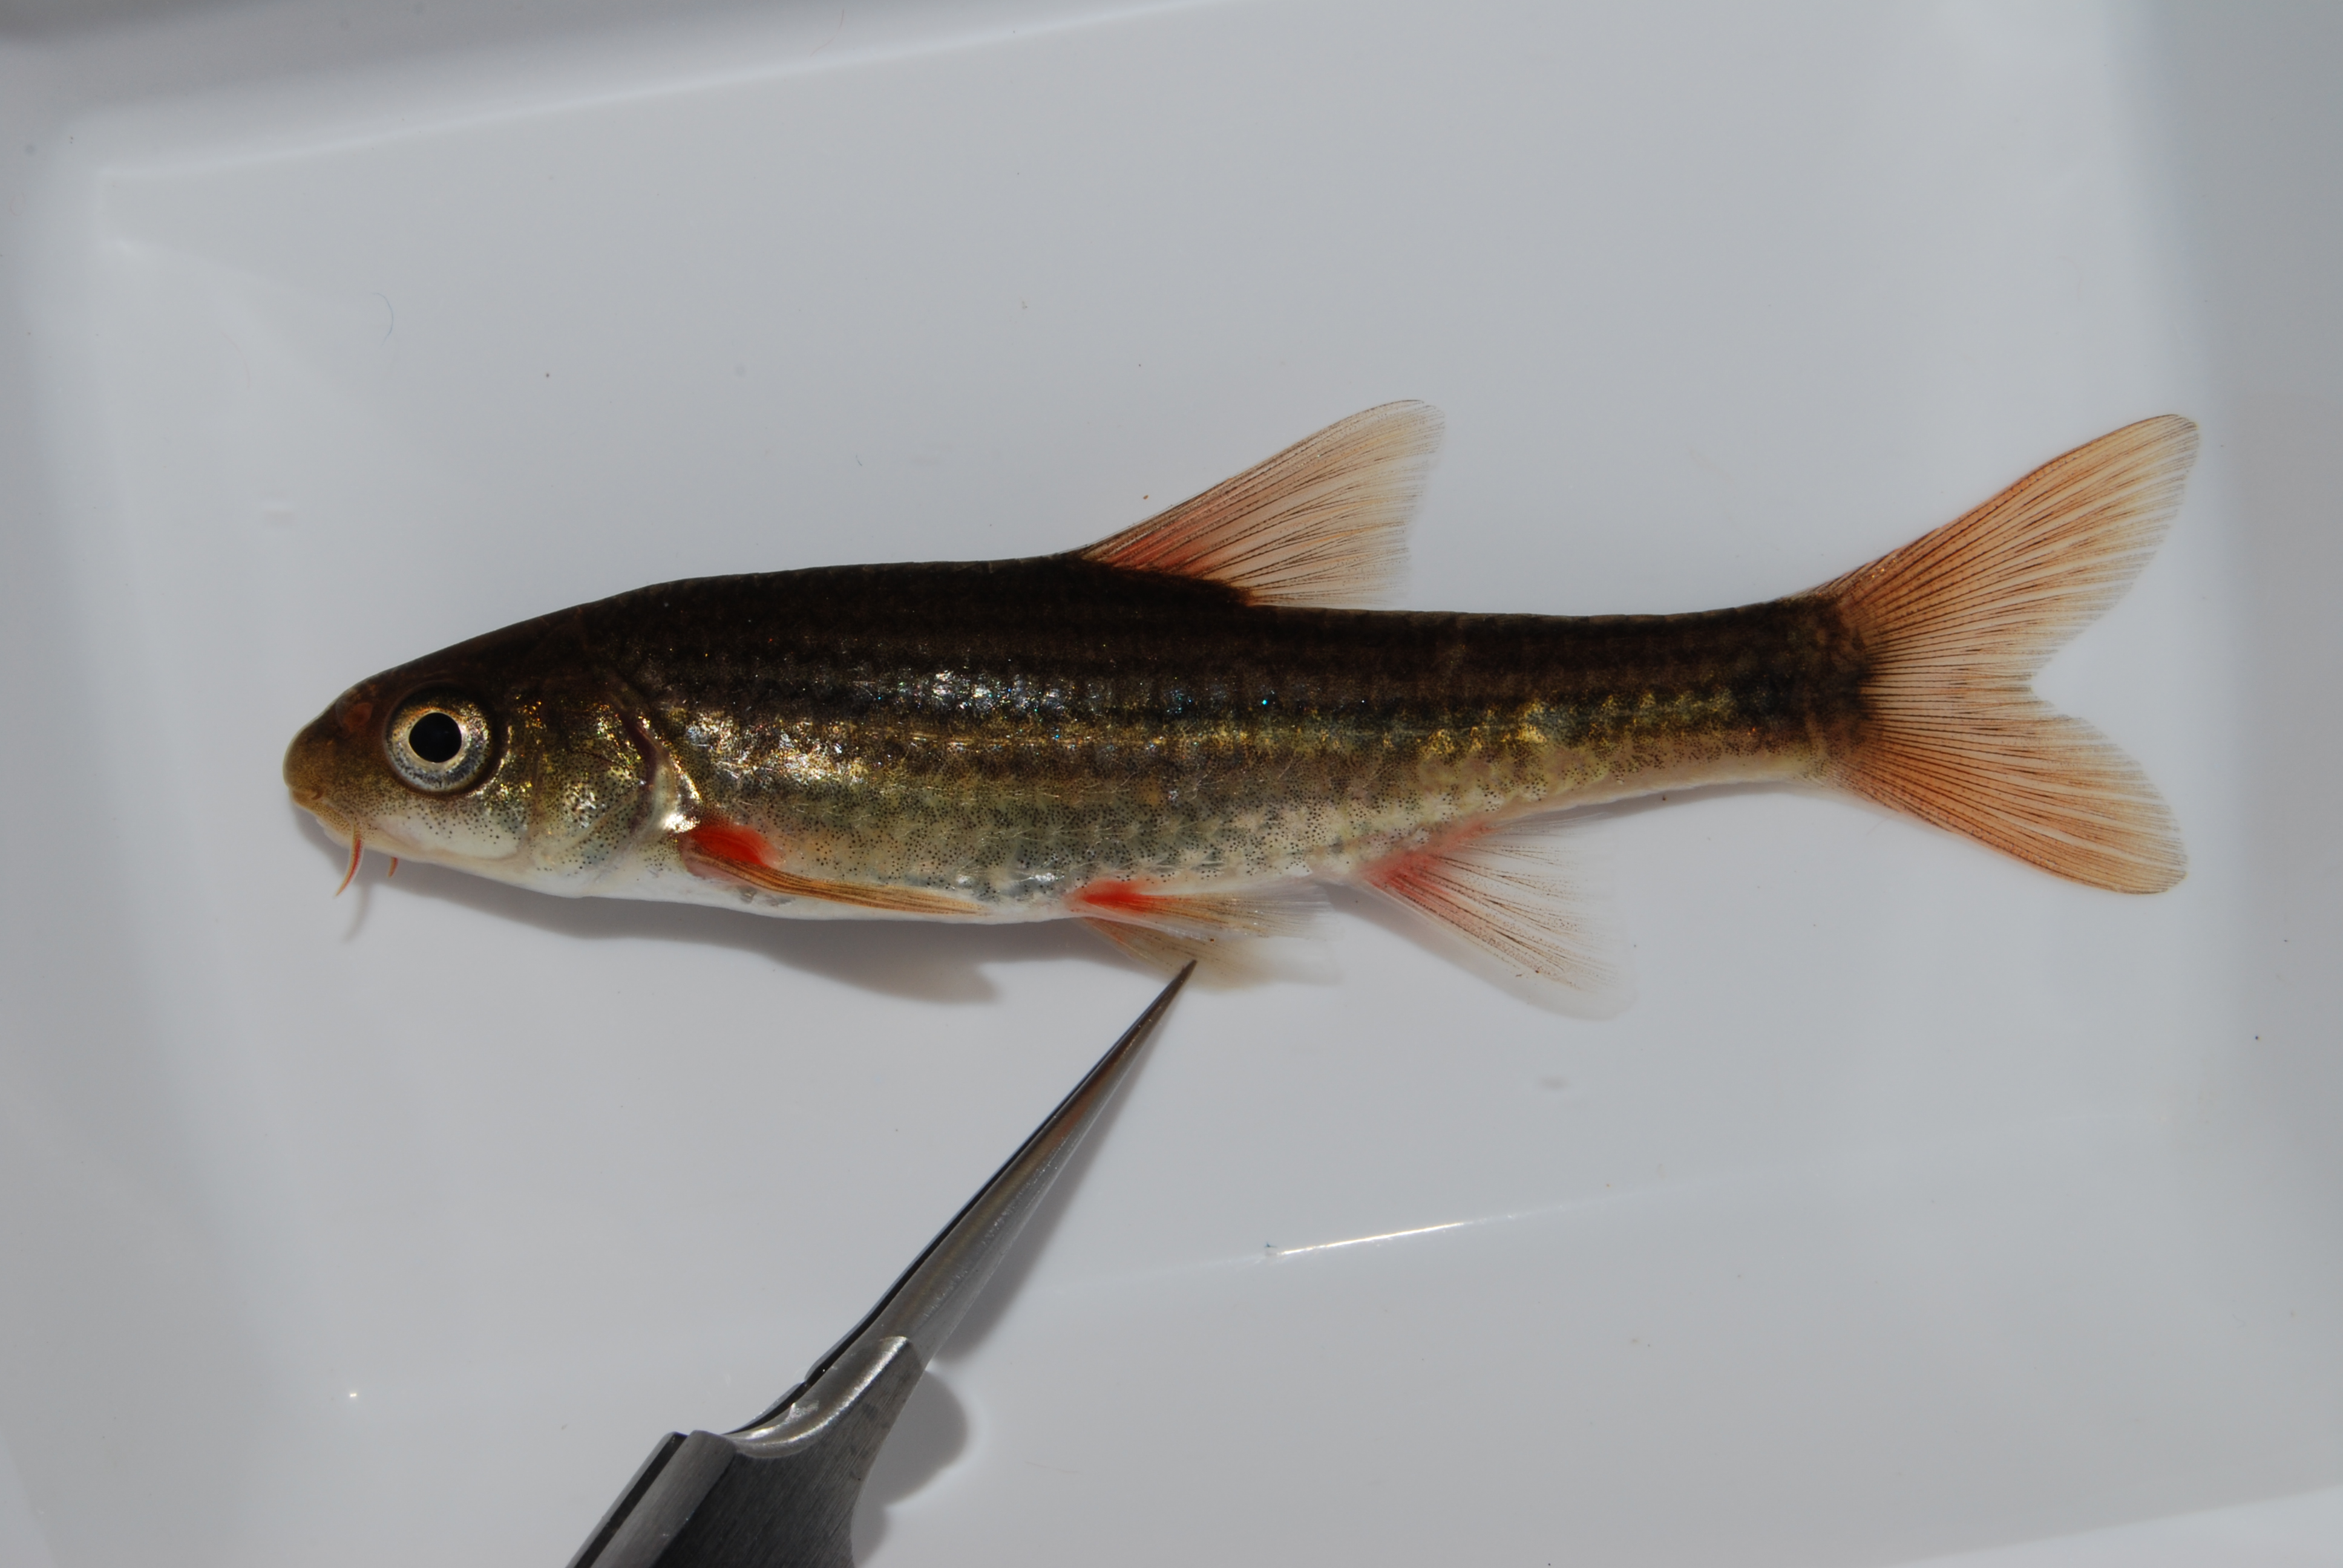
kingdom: Animalia
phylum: Chordata
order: Cypriniformes
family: Cyprinidae
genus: Pseudobarbus
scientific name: Pseudobarbus burgi
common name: Berg river redfin
